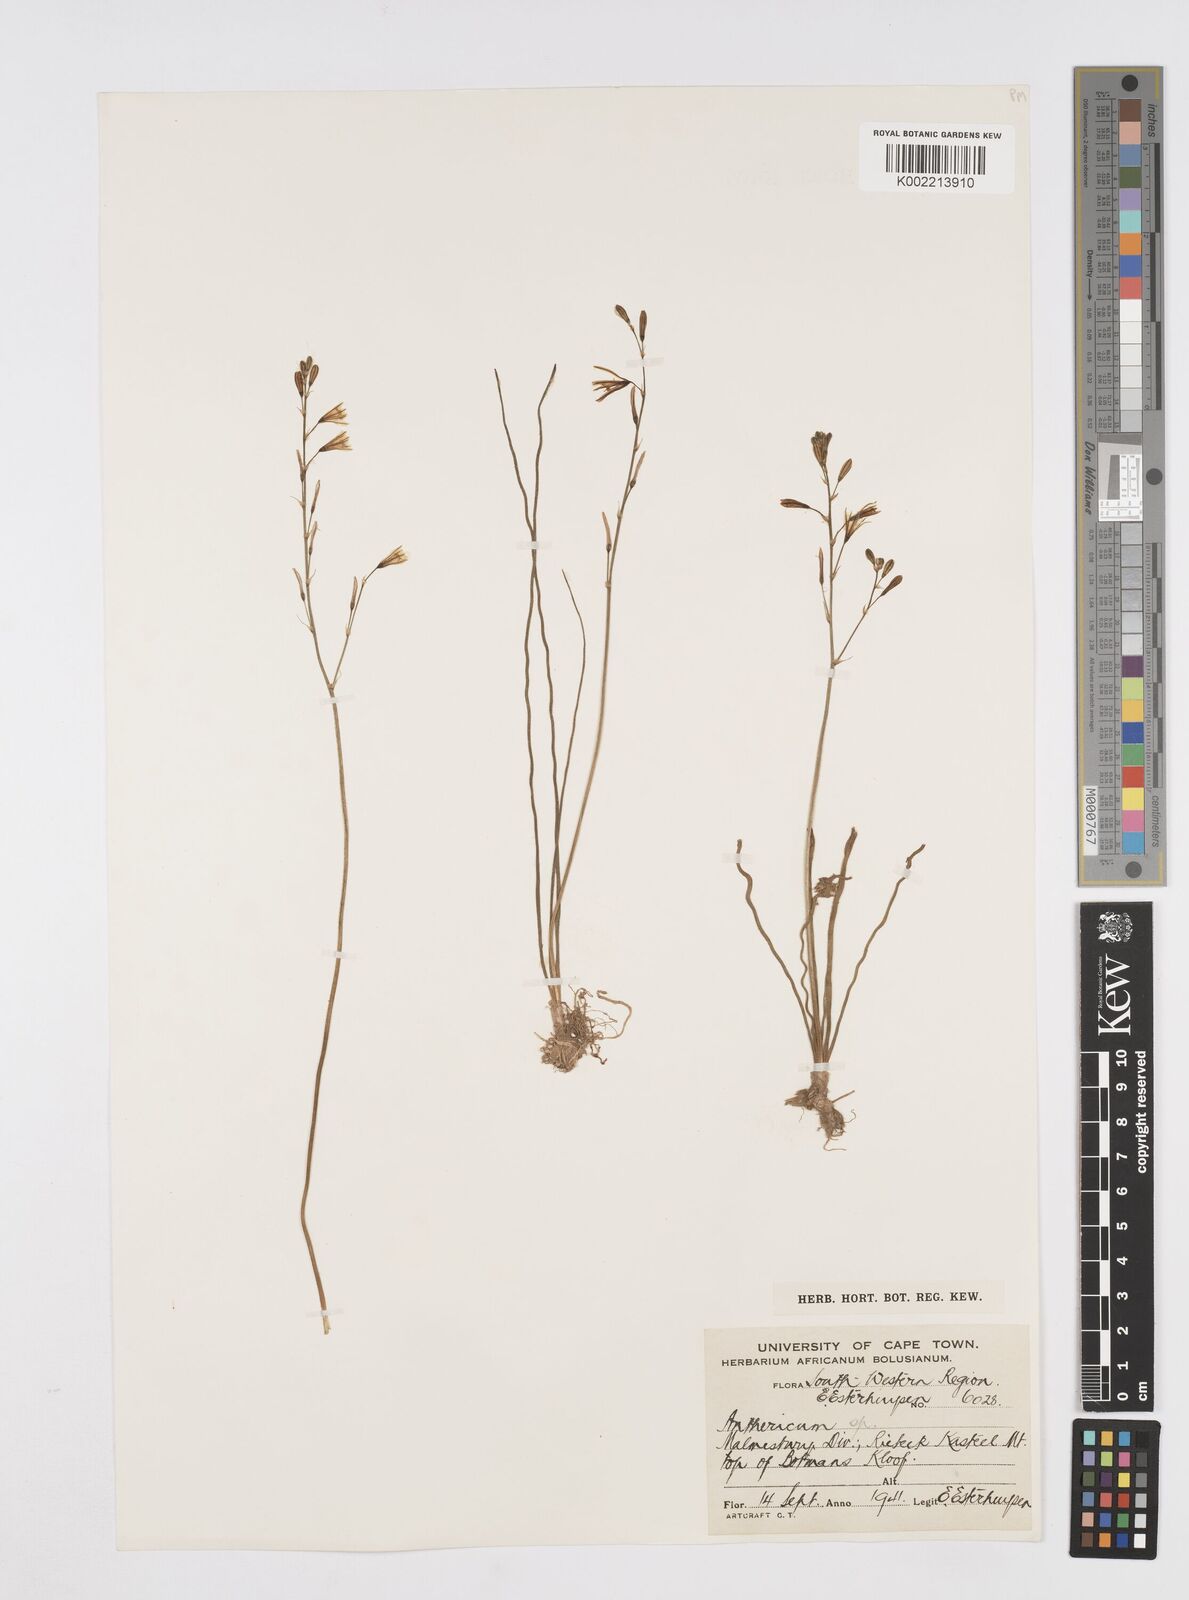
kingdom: Plantae
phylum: Tracheophyta
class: Liliopsida
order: Asparagales
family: Asphodelaceae
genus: Trachyandra
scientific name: Trachyandra flexifolia
